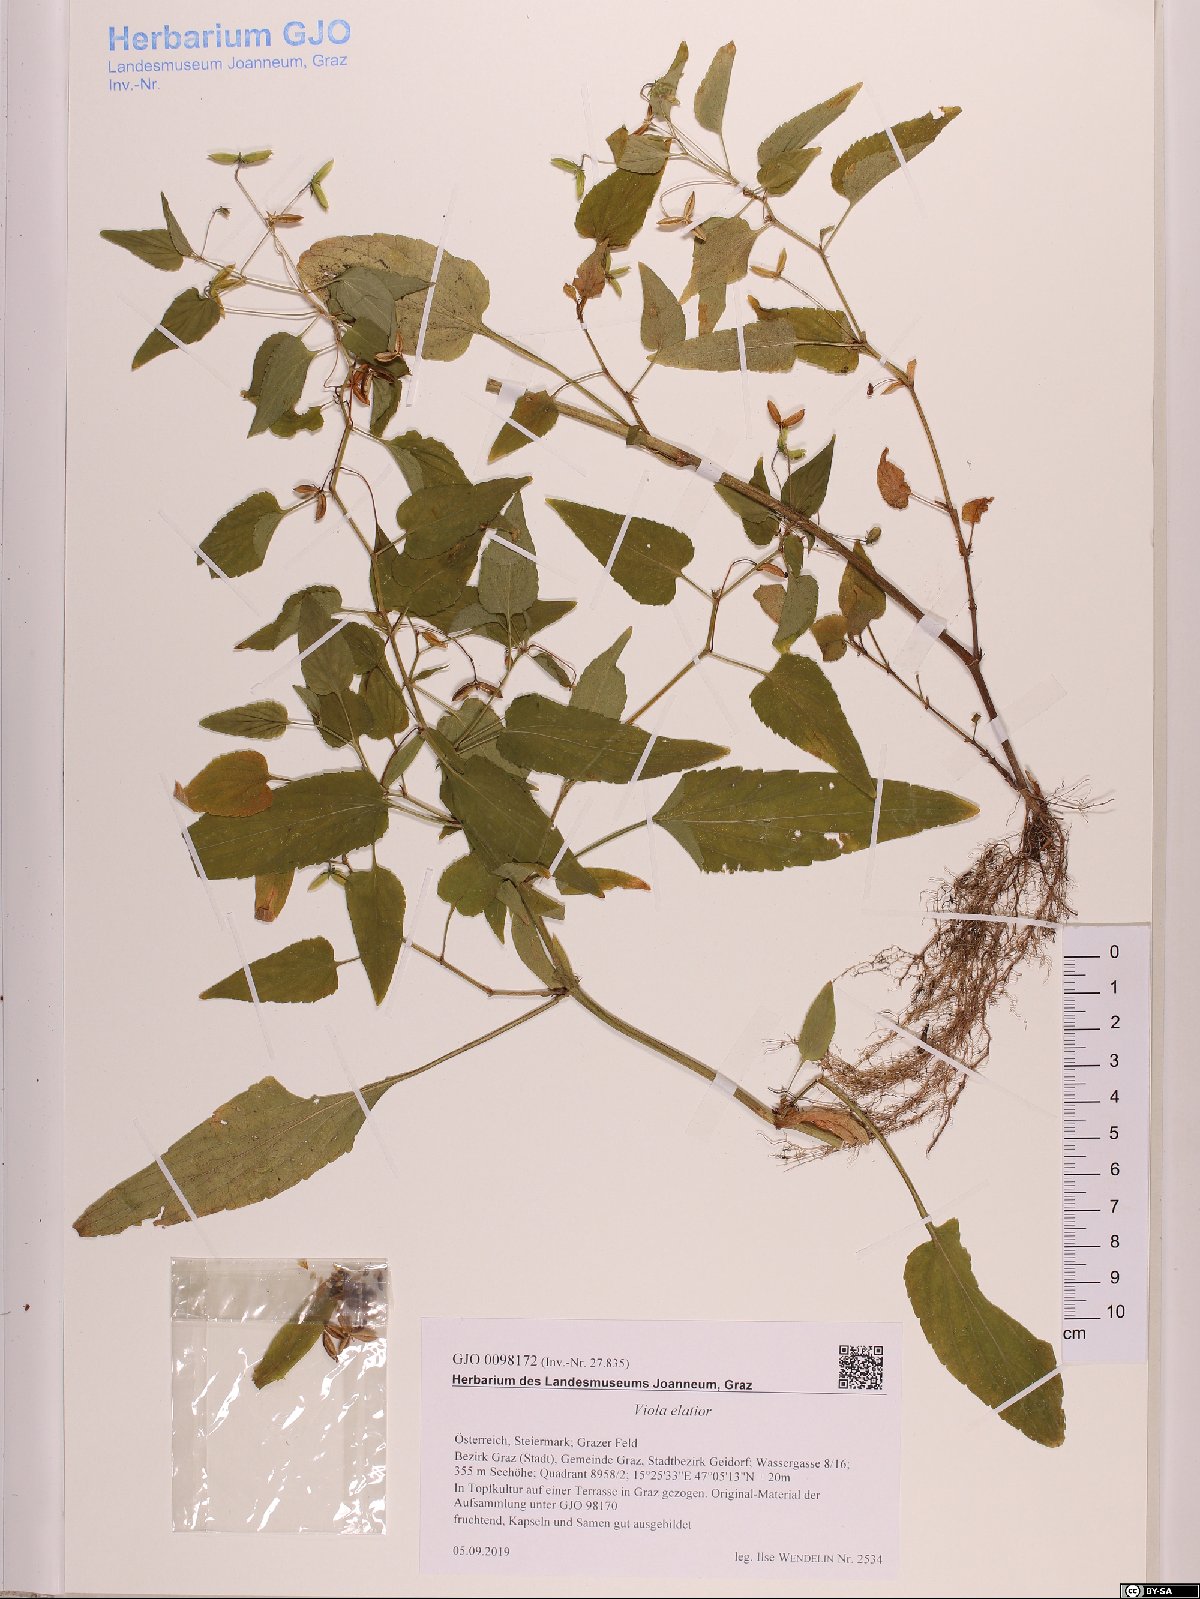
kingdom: Plantae
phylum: Tracheophyta
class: Magnoliopsida
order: Malpighiales
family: Violaceae
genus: Viola
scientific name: Viola elatior
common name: Tall violet
